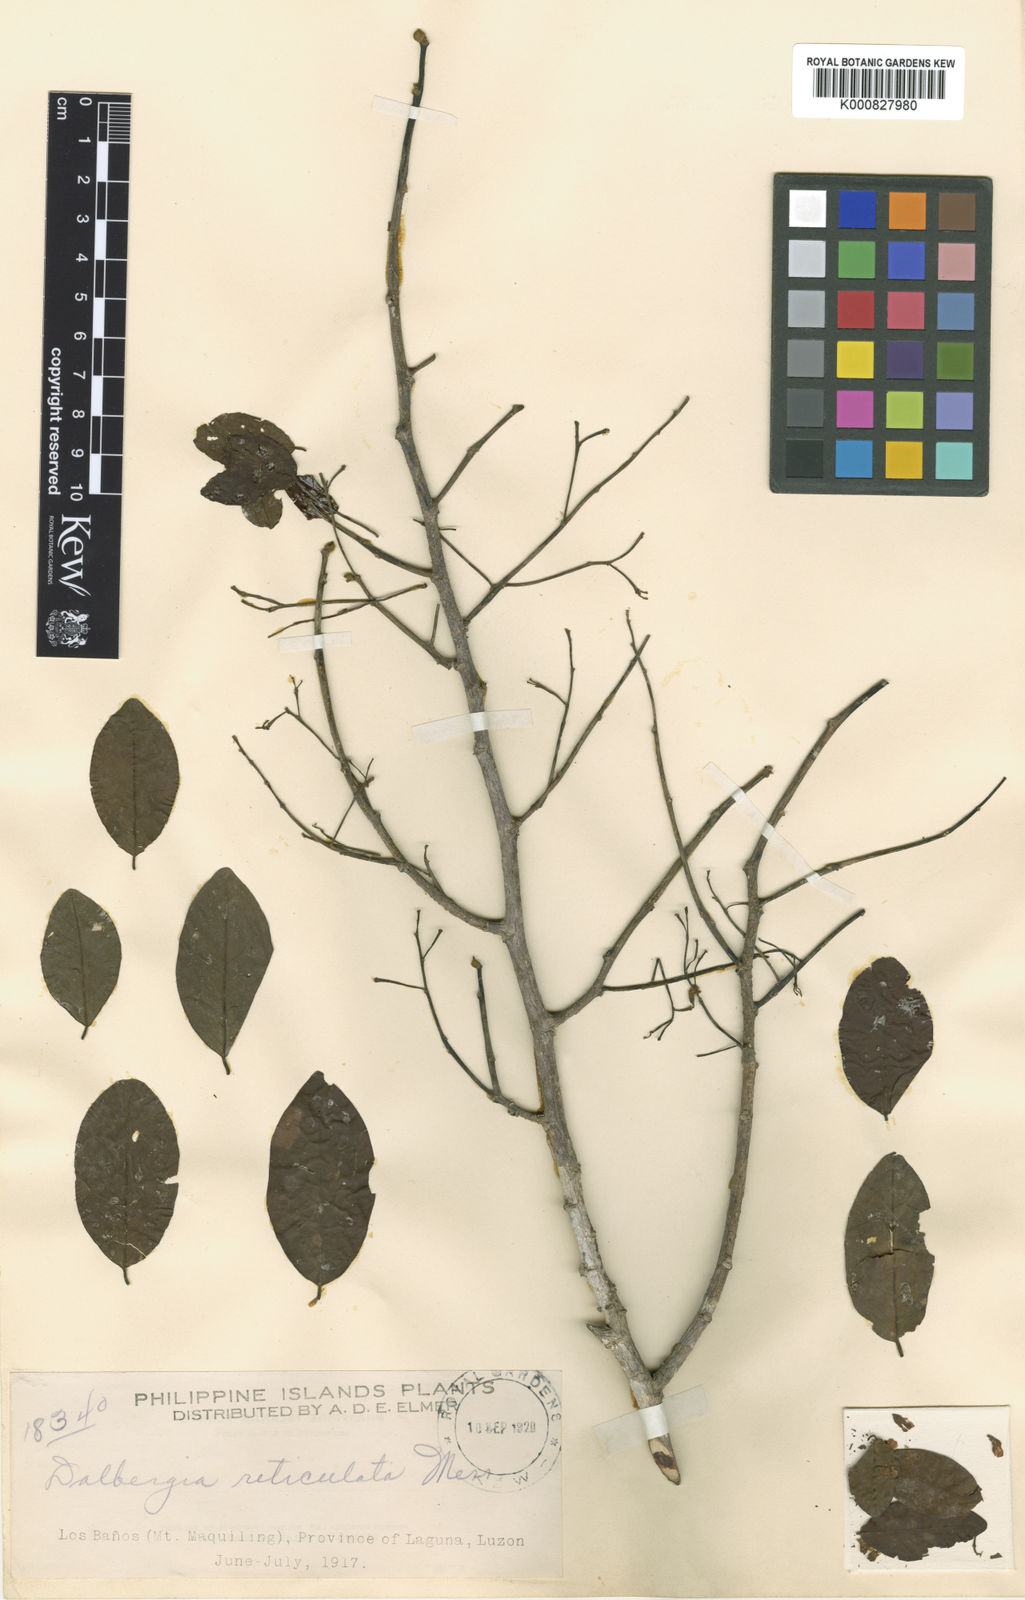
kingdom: Plantae
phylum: Tracheophyta
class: Magnoliopsida
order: Fabales
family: Fabaceae
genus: Dalbergia
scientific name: Dalbergia reticulata
